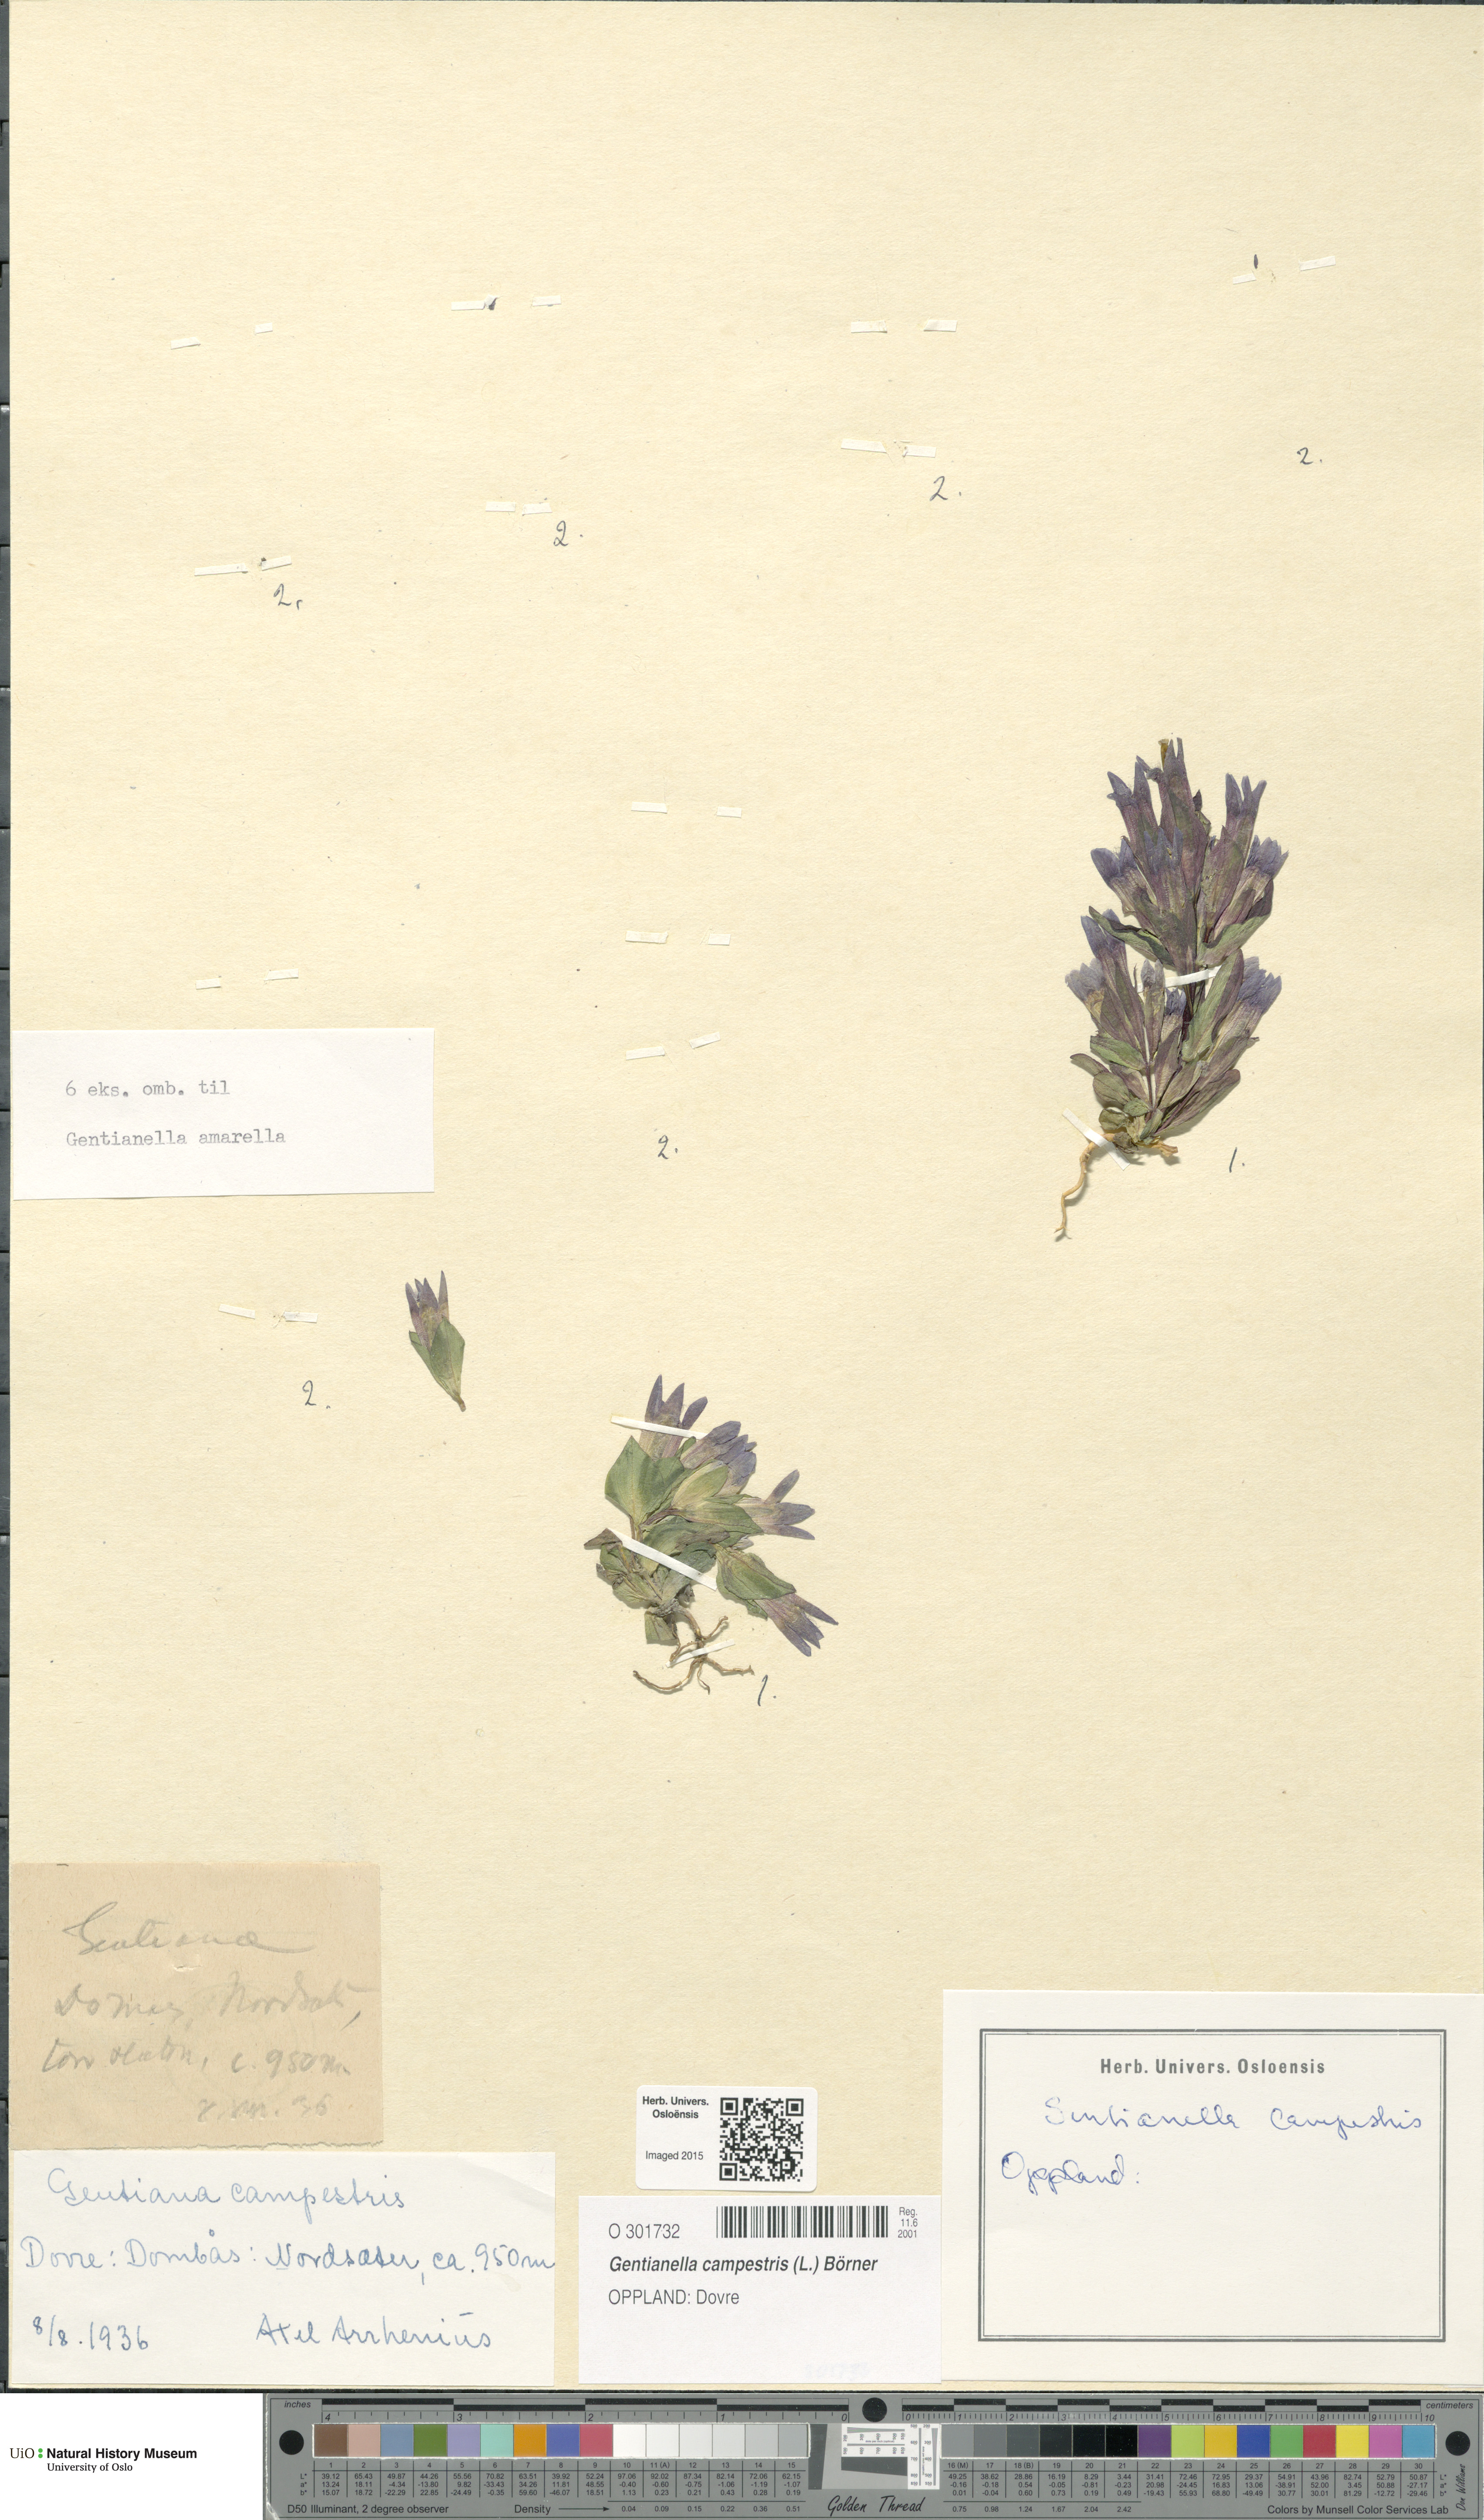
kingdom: Plantae
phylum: Tracheophyta
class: Magnoliopsida
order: Gentianales
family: Gentianaceae
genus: Gentianella
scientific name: Gentianella campestris
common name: Field gentian
